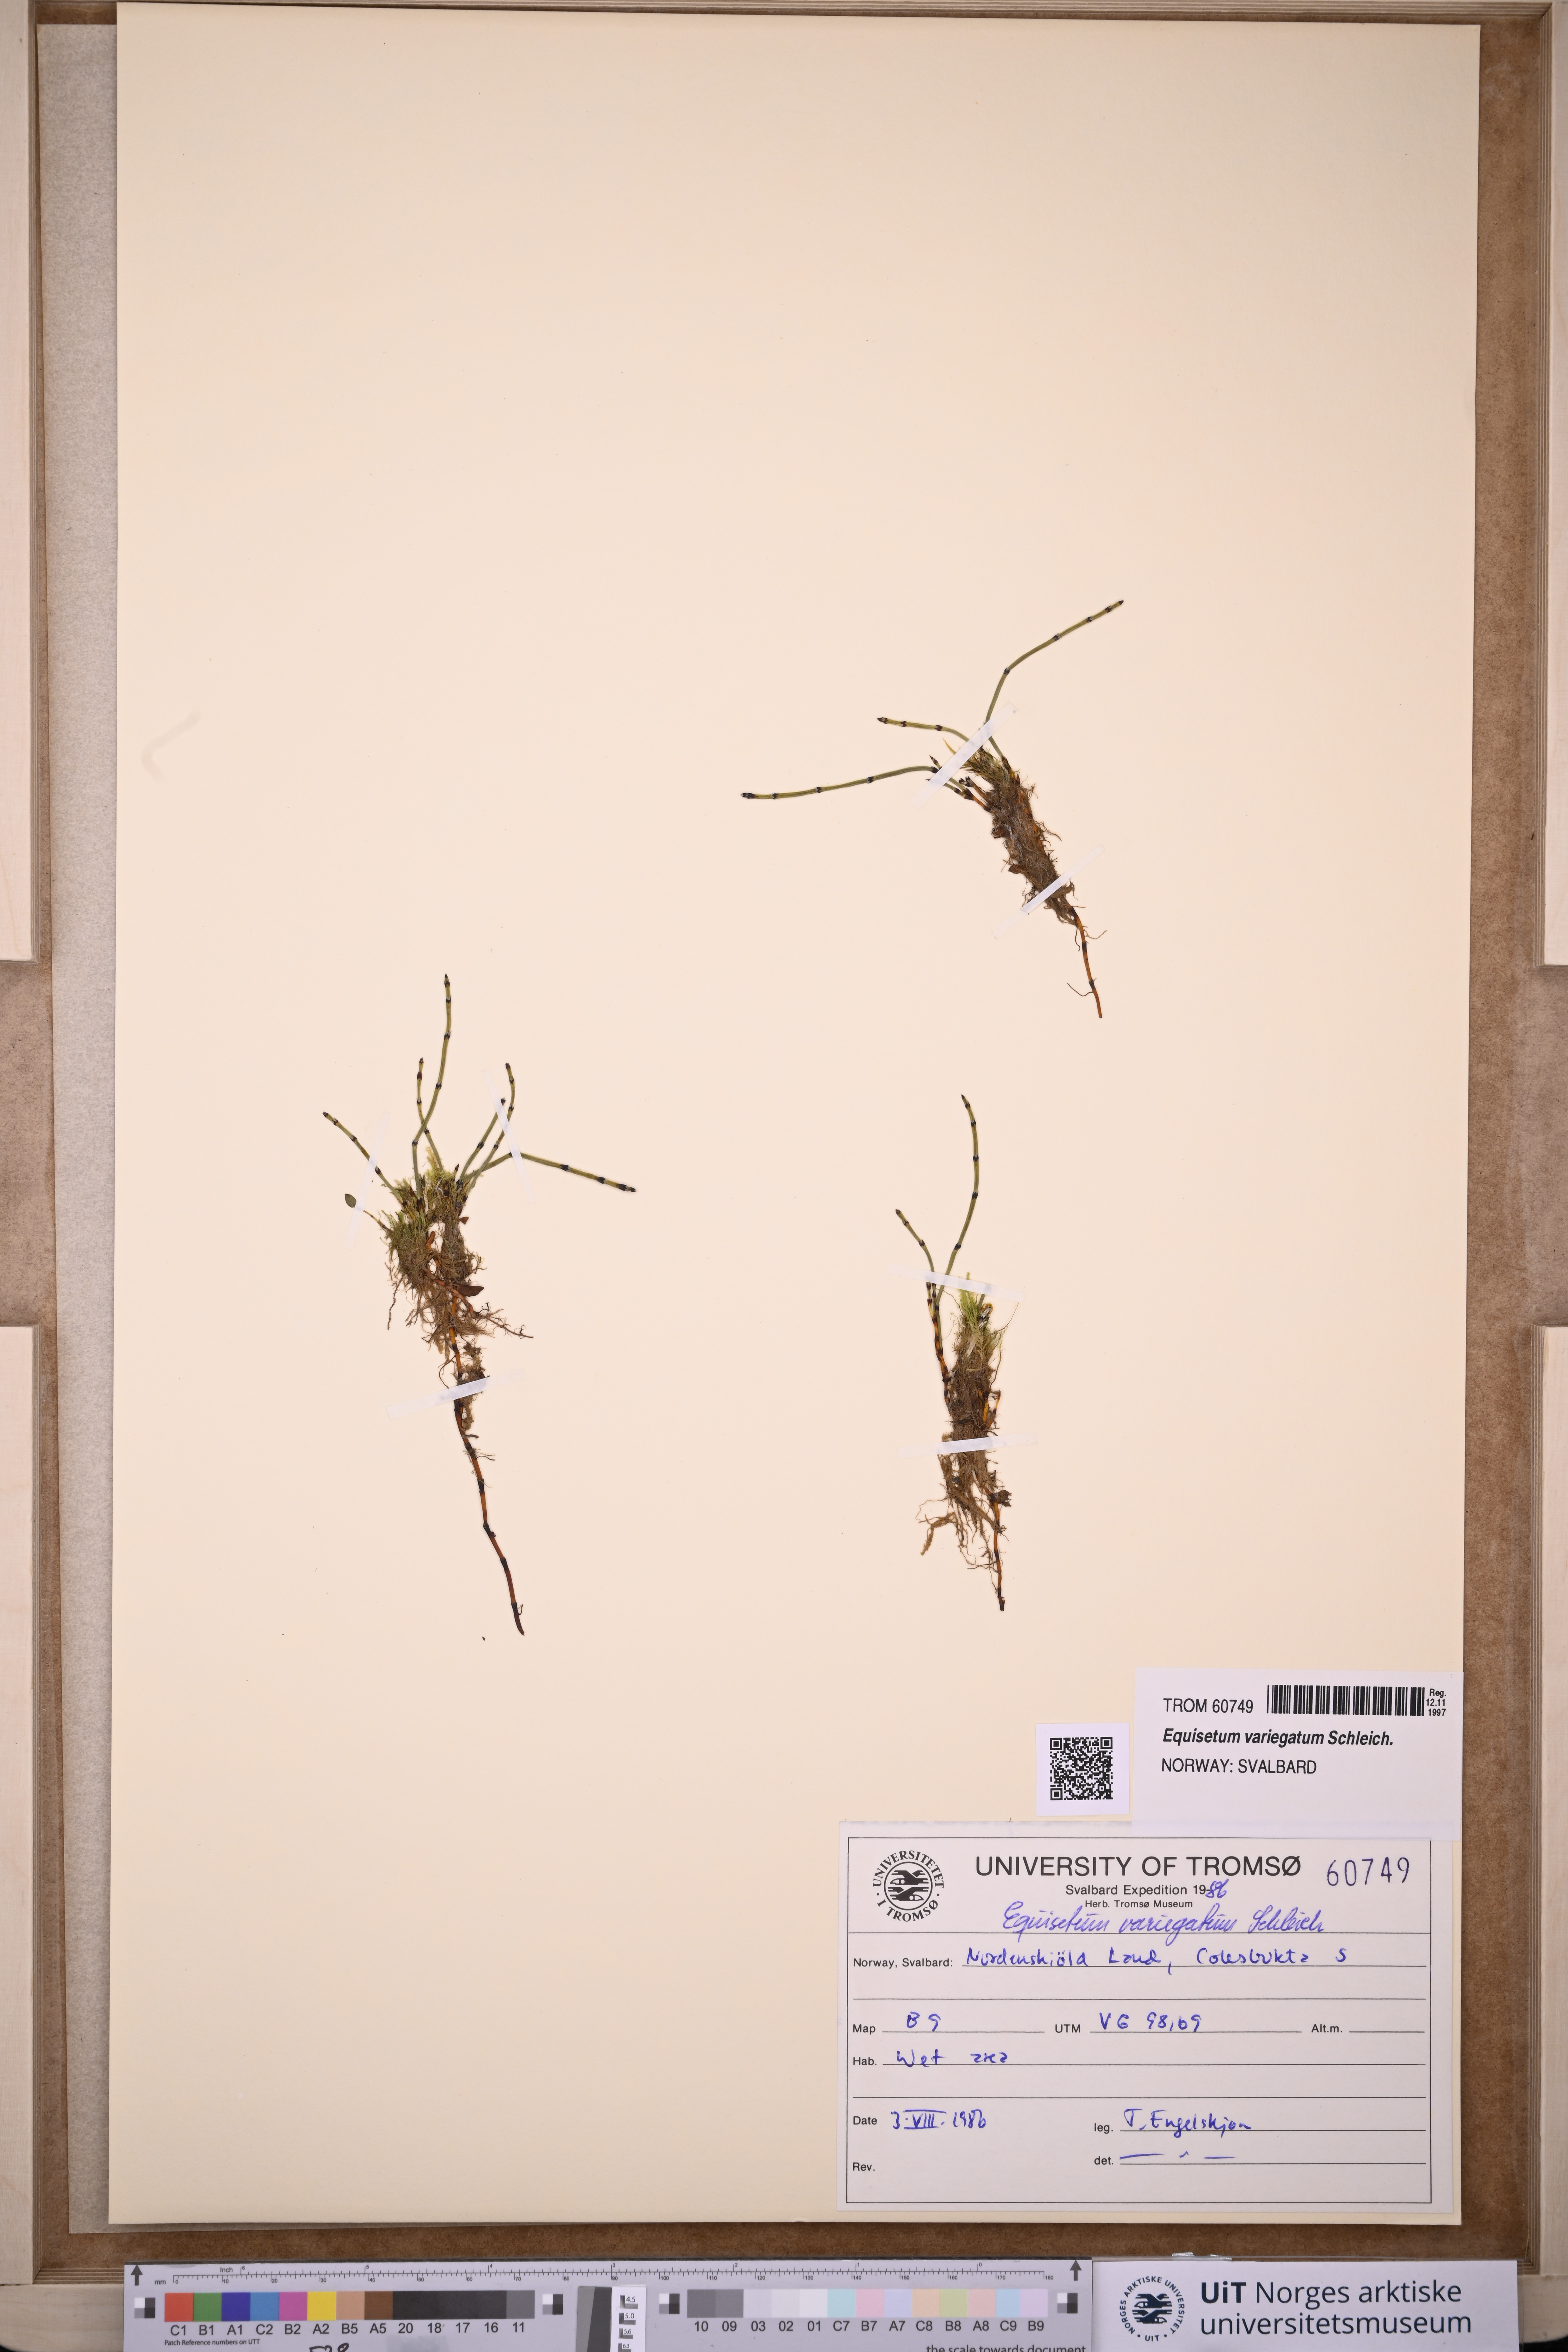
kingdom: Plantae
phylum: Tracheophyta
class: Polypodiopsida
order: Equisetales
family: Equisetaceae
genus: Equisetum
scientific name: Equisetum variegatum
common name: Variegated horsetail
